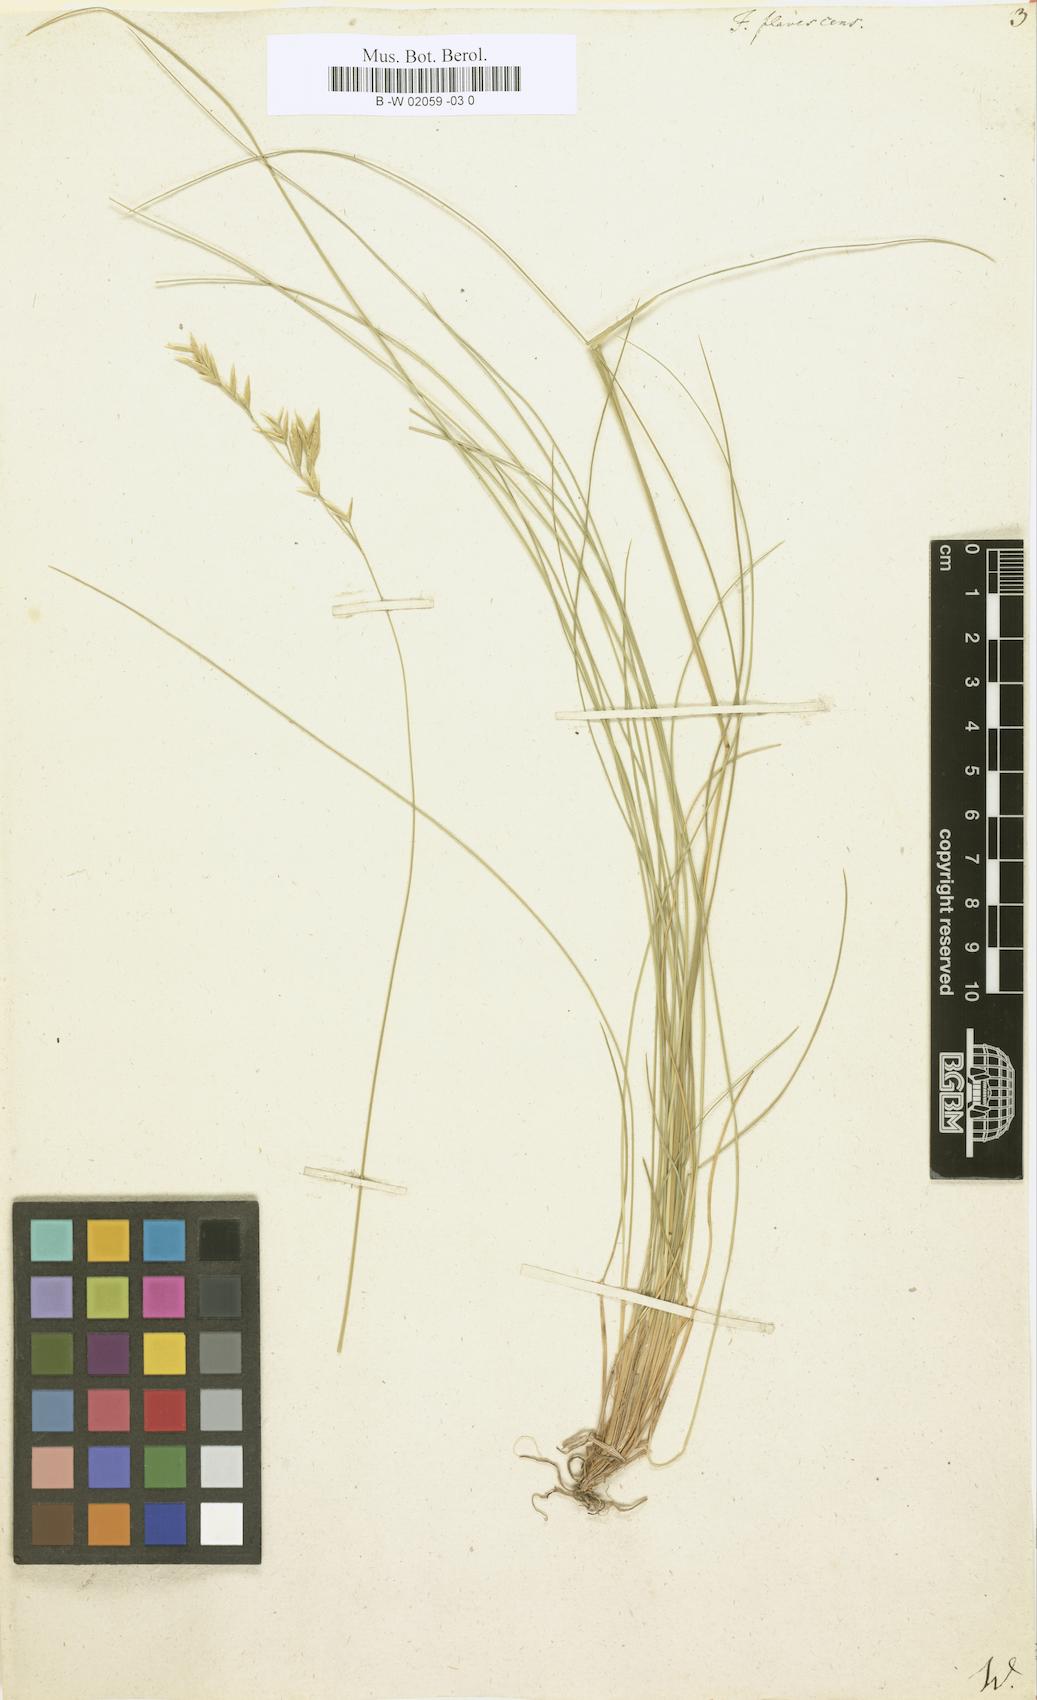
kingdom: Plantae
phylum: Tracheophyta
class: Liliopsida
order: Poales
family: Poaceae
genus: Festuca
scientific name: Festuca flavescens
